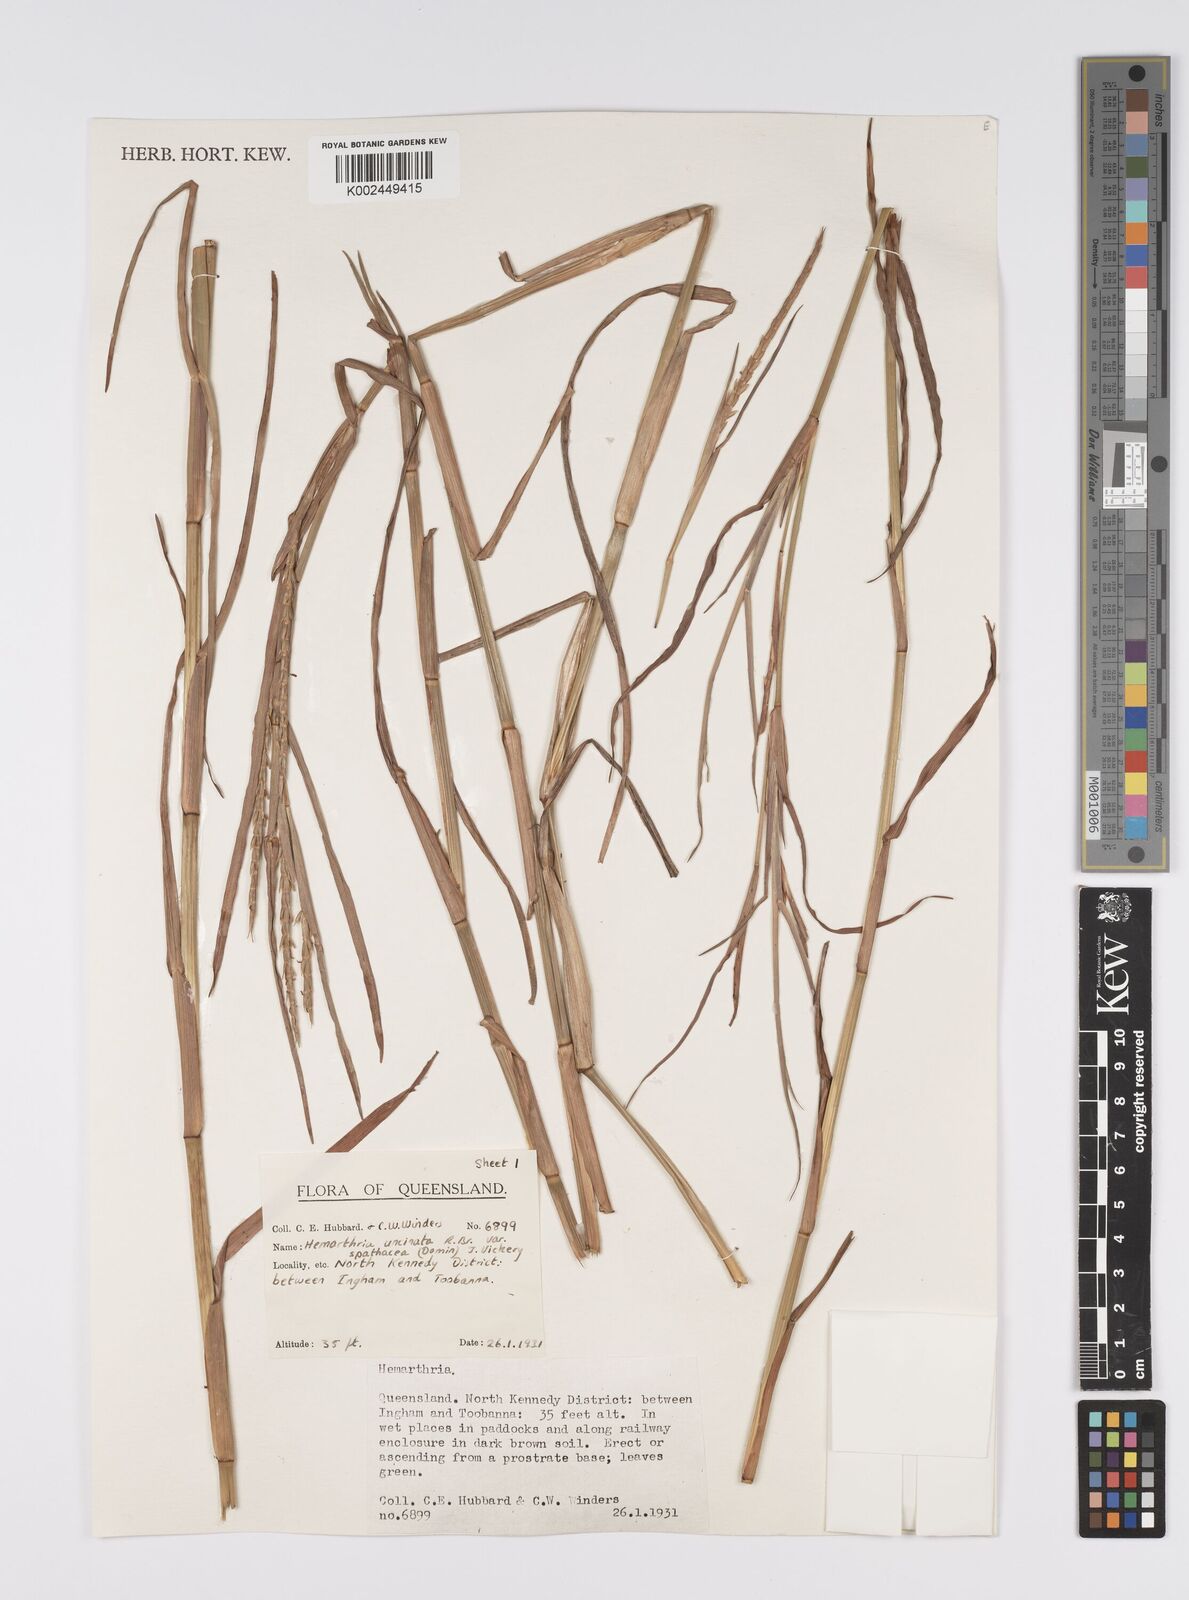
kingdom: Plantae
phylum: Tracheophyta
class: Liliopsida
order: Poales
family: Poaceae
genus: Hemarthria
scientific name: Hemarthria uncinata
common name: Matgrass
